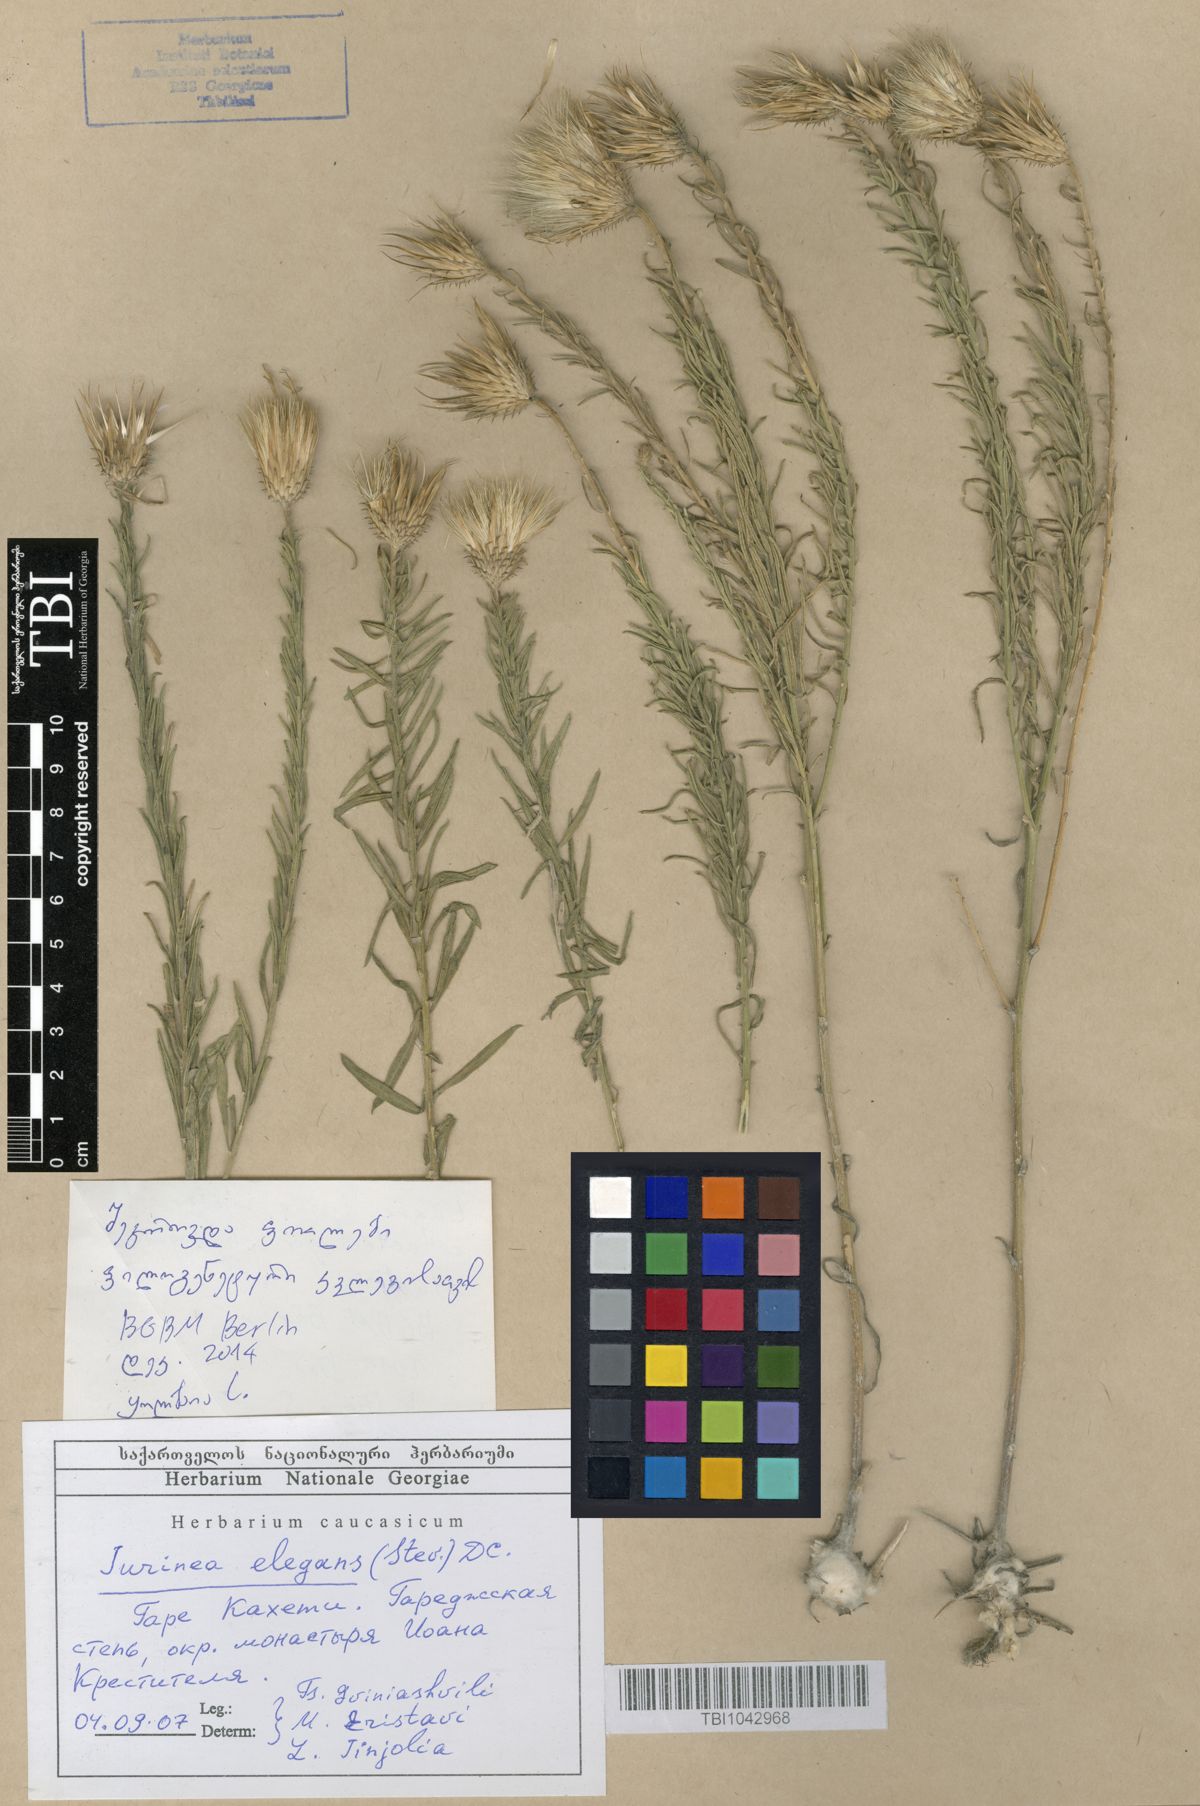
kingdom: Plantae
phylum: Tracheophyta
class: Magnoliopsida
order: Asterales
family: Asteraceae
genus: Jurinea
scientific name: Jurinea elegans
